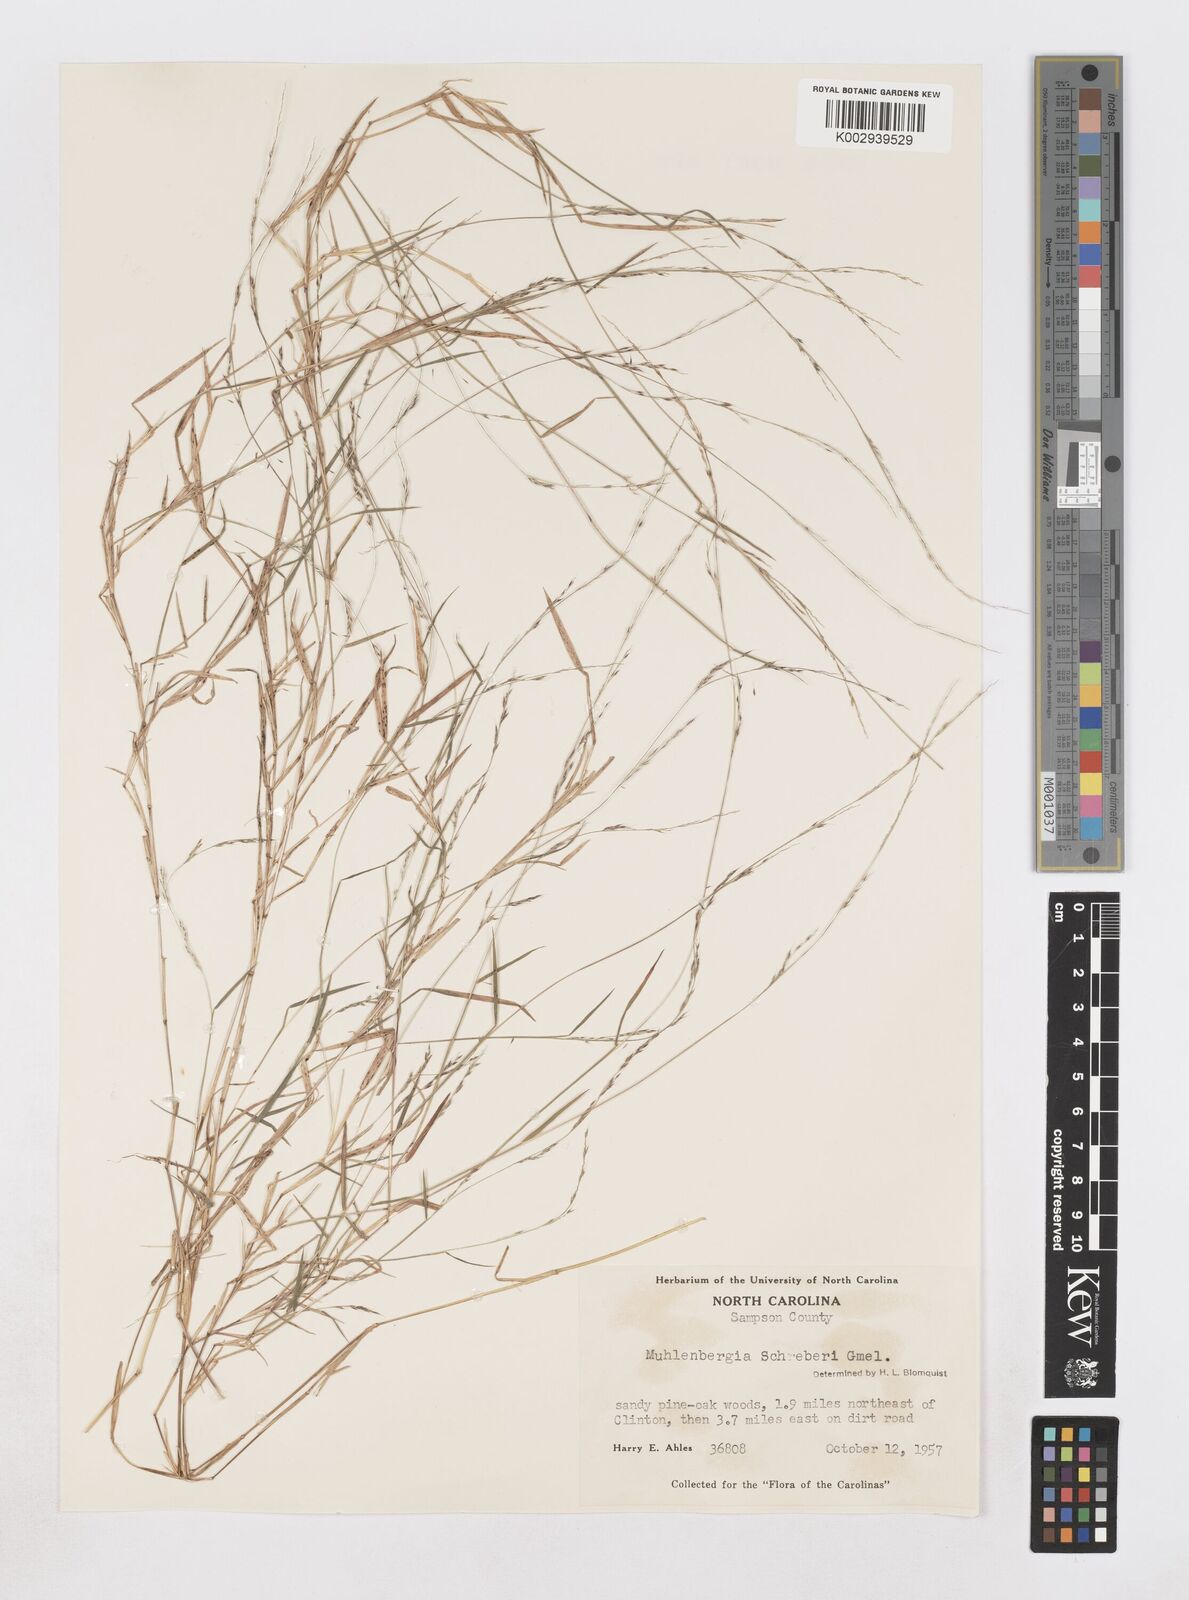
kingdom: Plantae
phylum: Tracheophyta
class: Liliopsida
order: Poales
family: Poaceae
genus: Muhlenbergia
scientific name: Muhlenbergia schreberi
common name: Nimblewill
